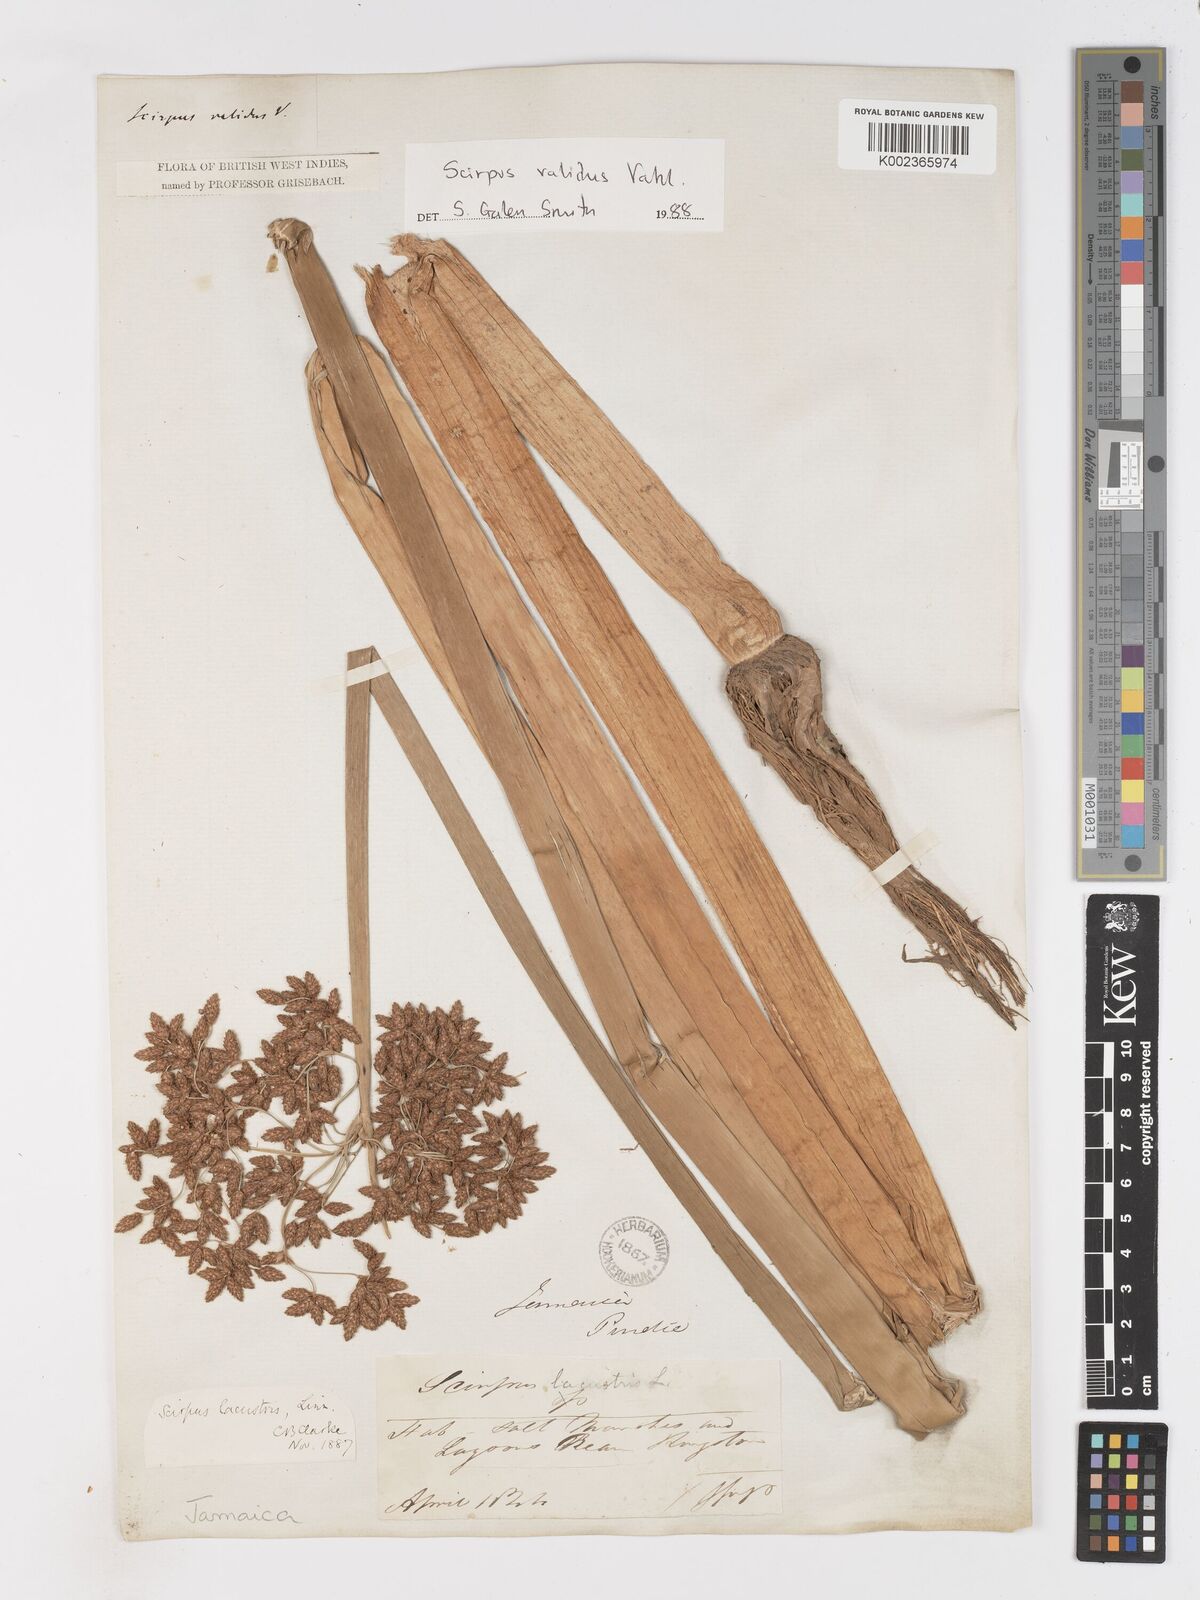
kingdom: Plantae
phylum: Tracheophyta
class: Liliopsida
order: Poales
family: Cyperaceae
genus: Schoenoplectus
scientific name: Schoenoplectus lacustris
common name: Common club-rush
